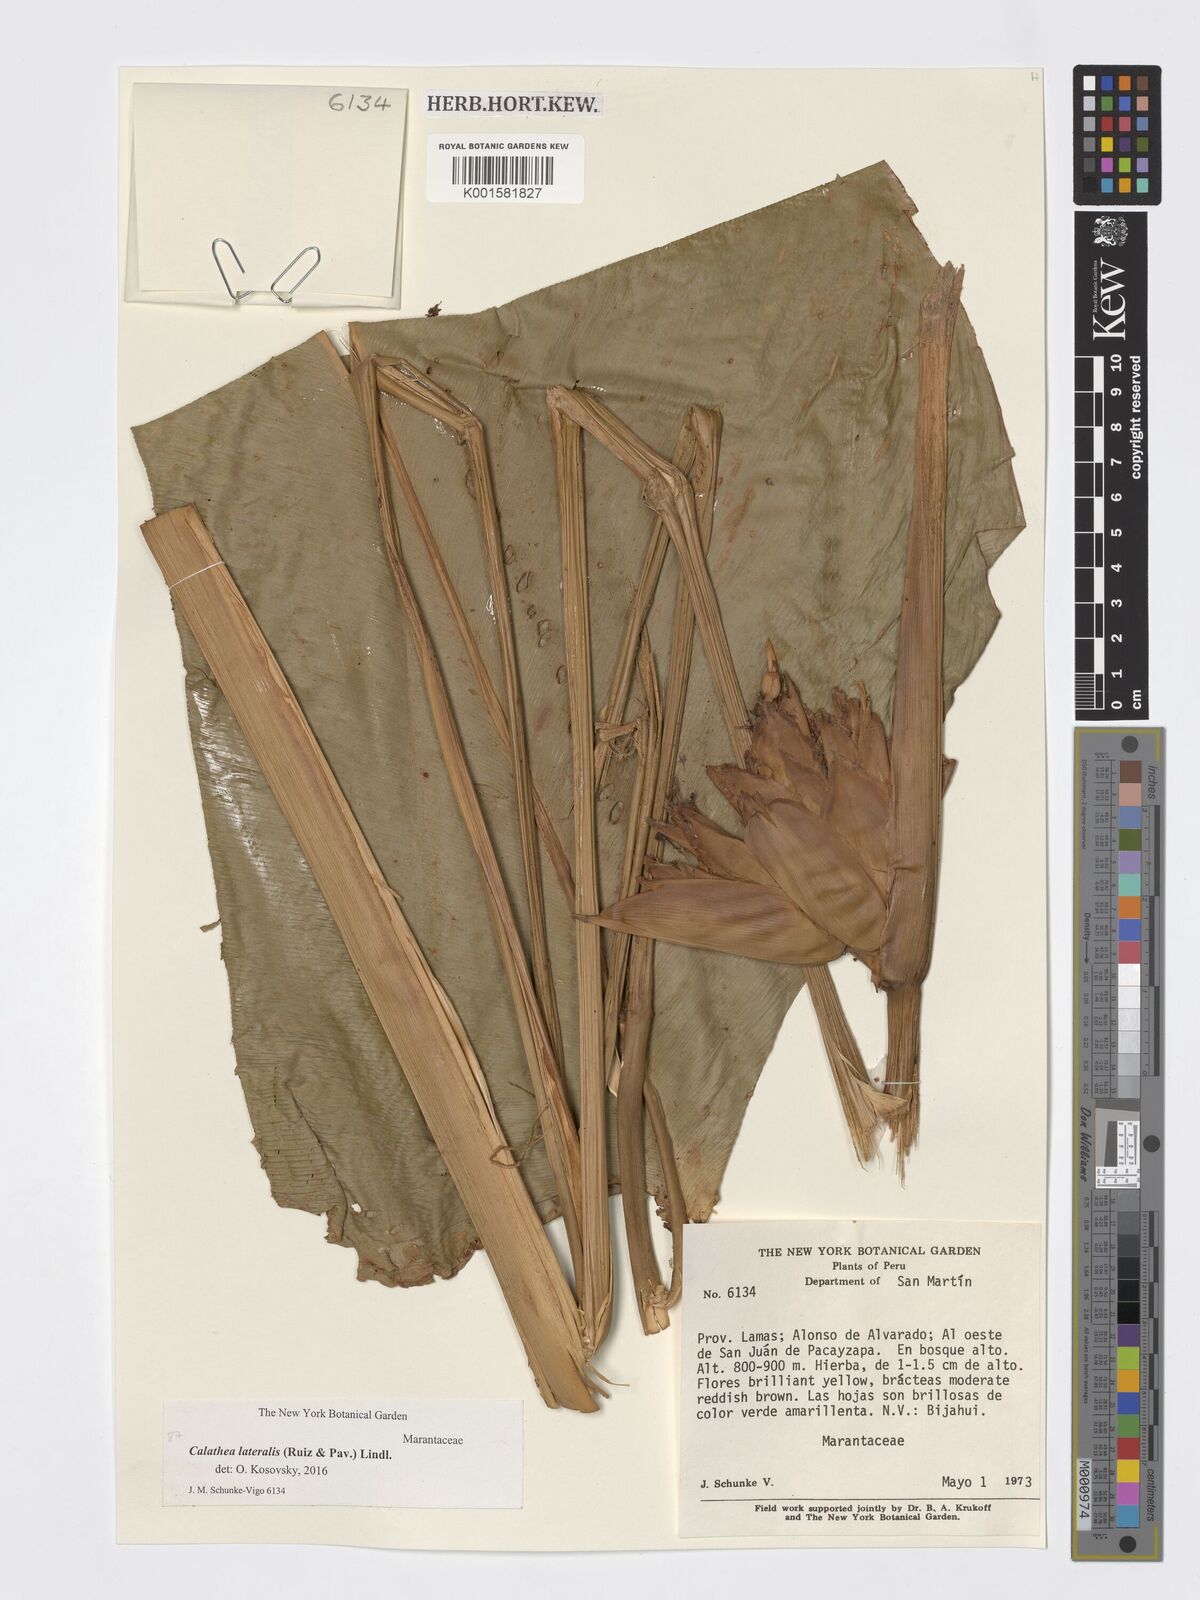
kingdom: Plantae
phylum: Tracheophyta
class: Liliopsida
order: Zingiberales
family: Marantaceae
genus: Calathea
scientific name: Calathea lateralis
